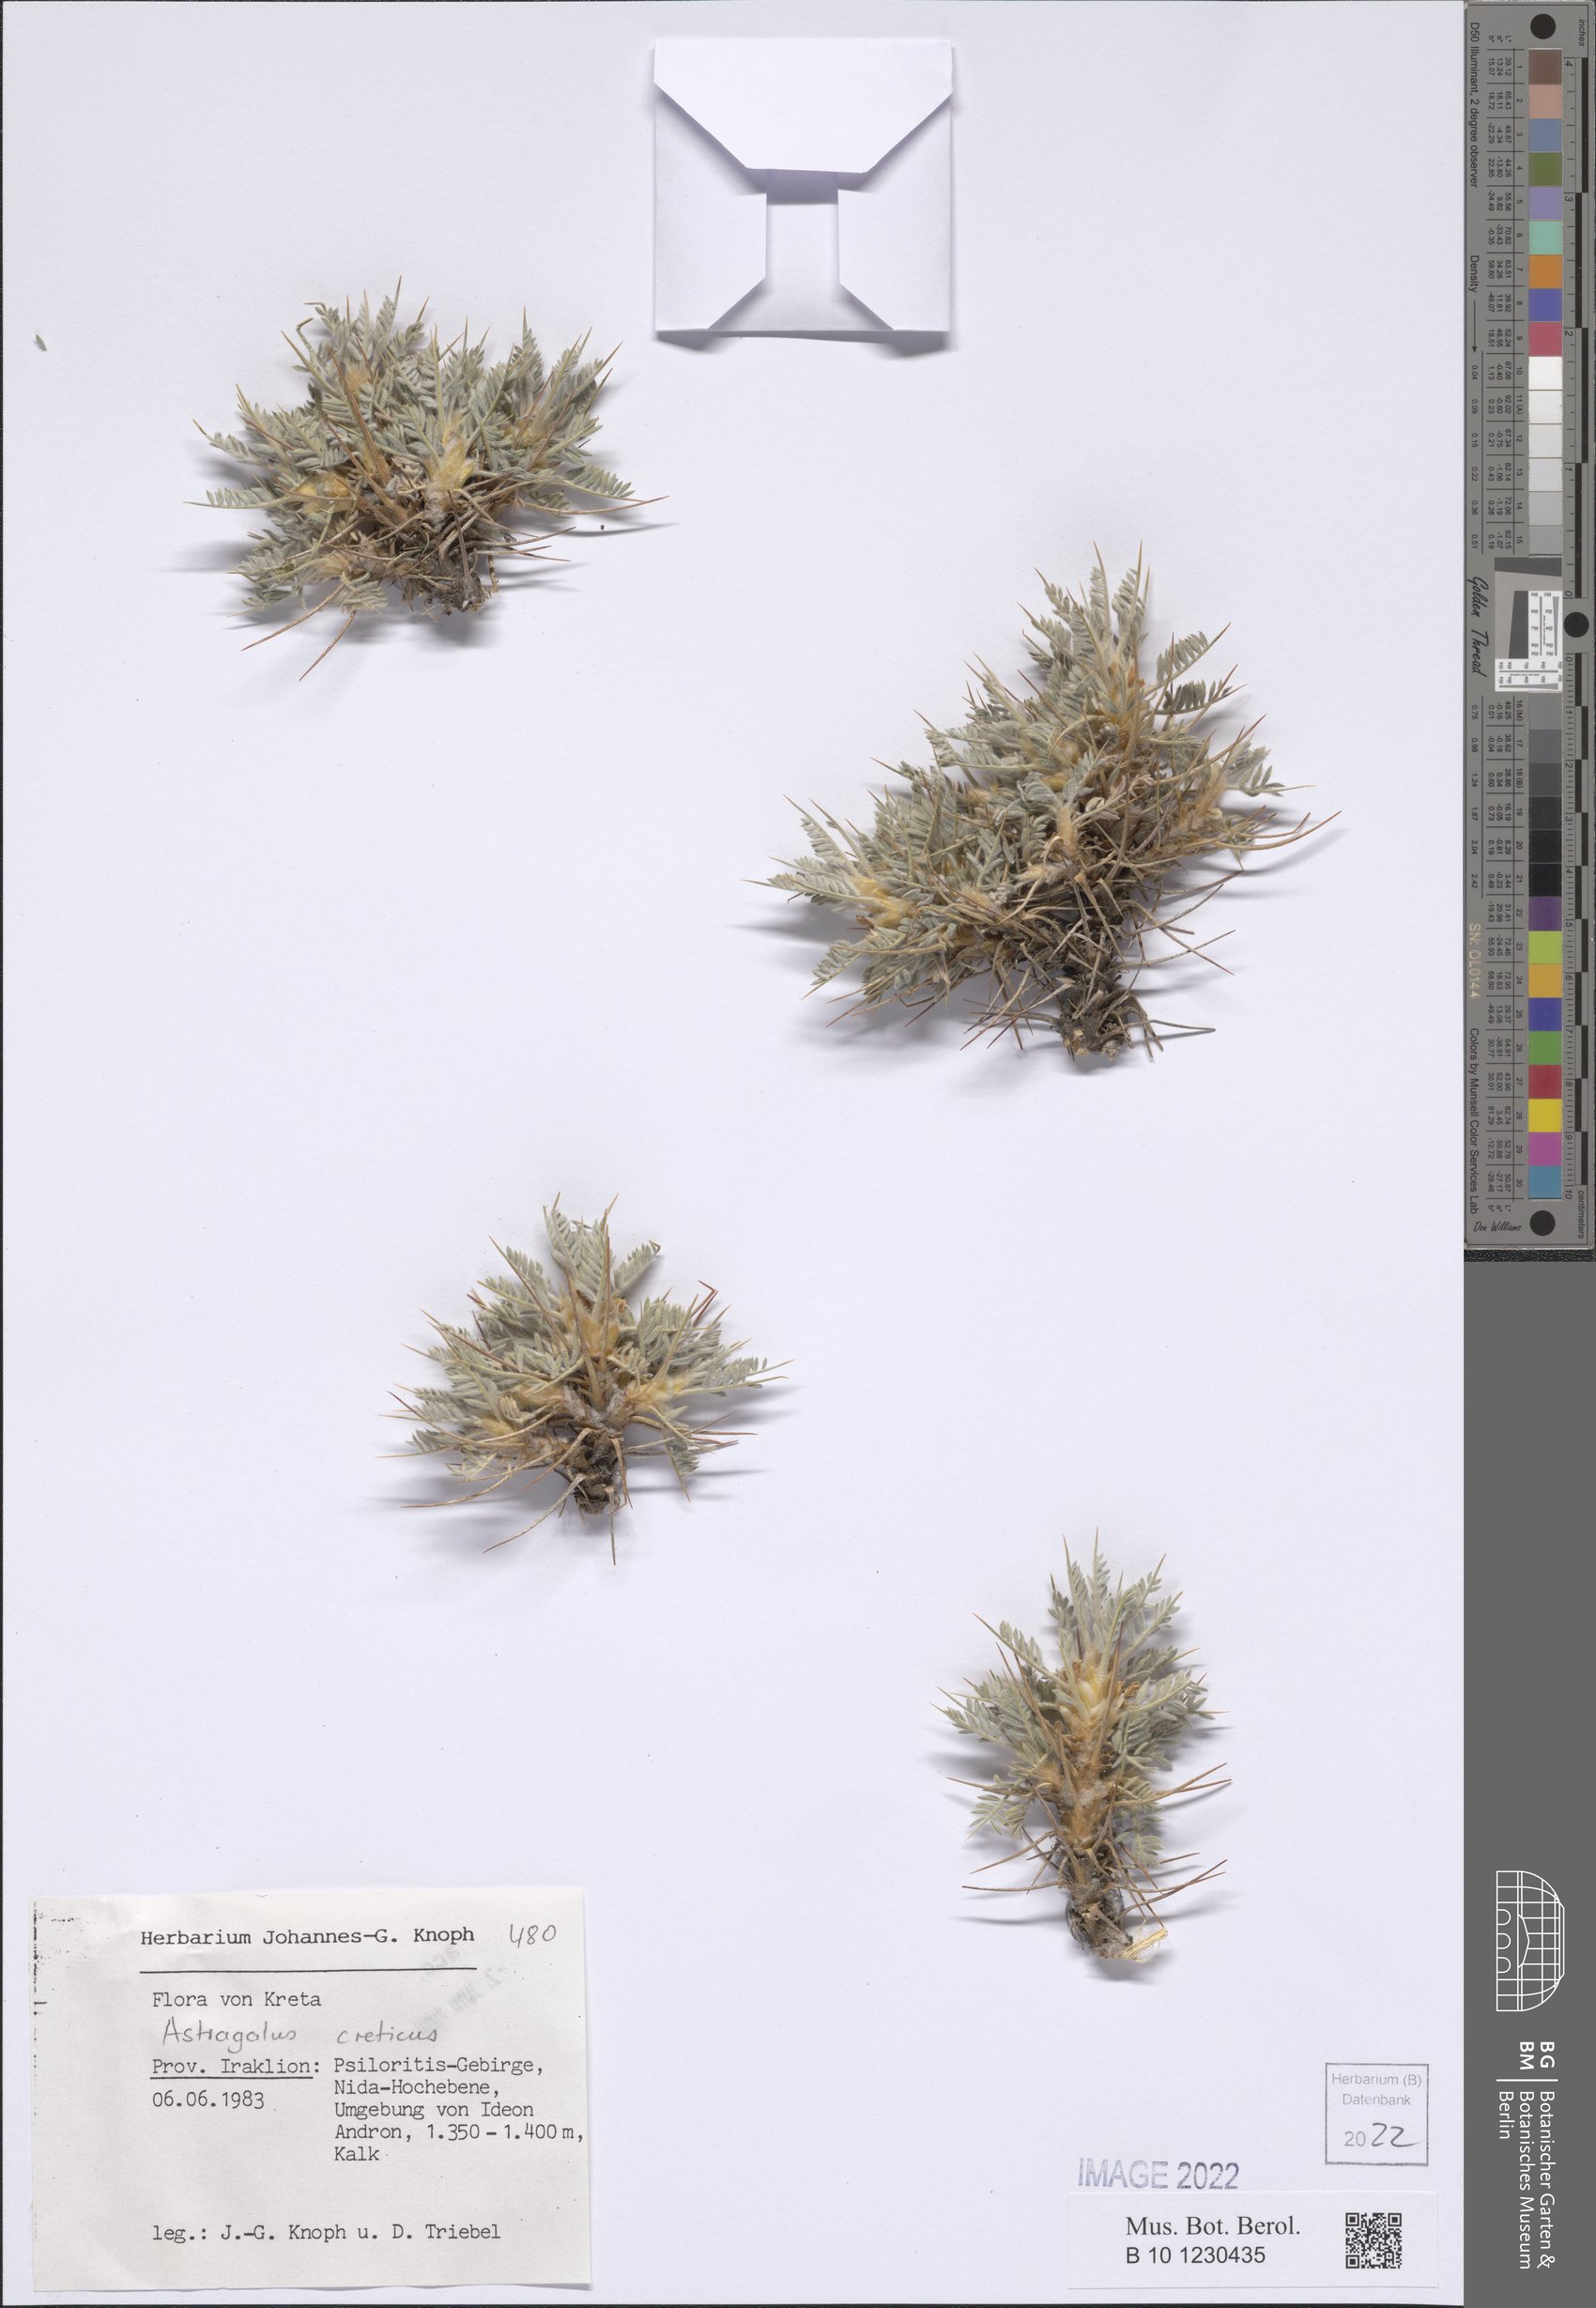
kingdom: Plantae
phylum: Tracheophyta
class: Magnoliopsida
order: Fabales
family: Fabaceae
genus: Astragalus
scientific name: Astragalus creticus
